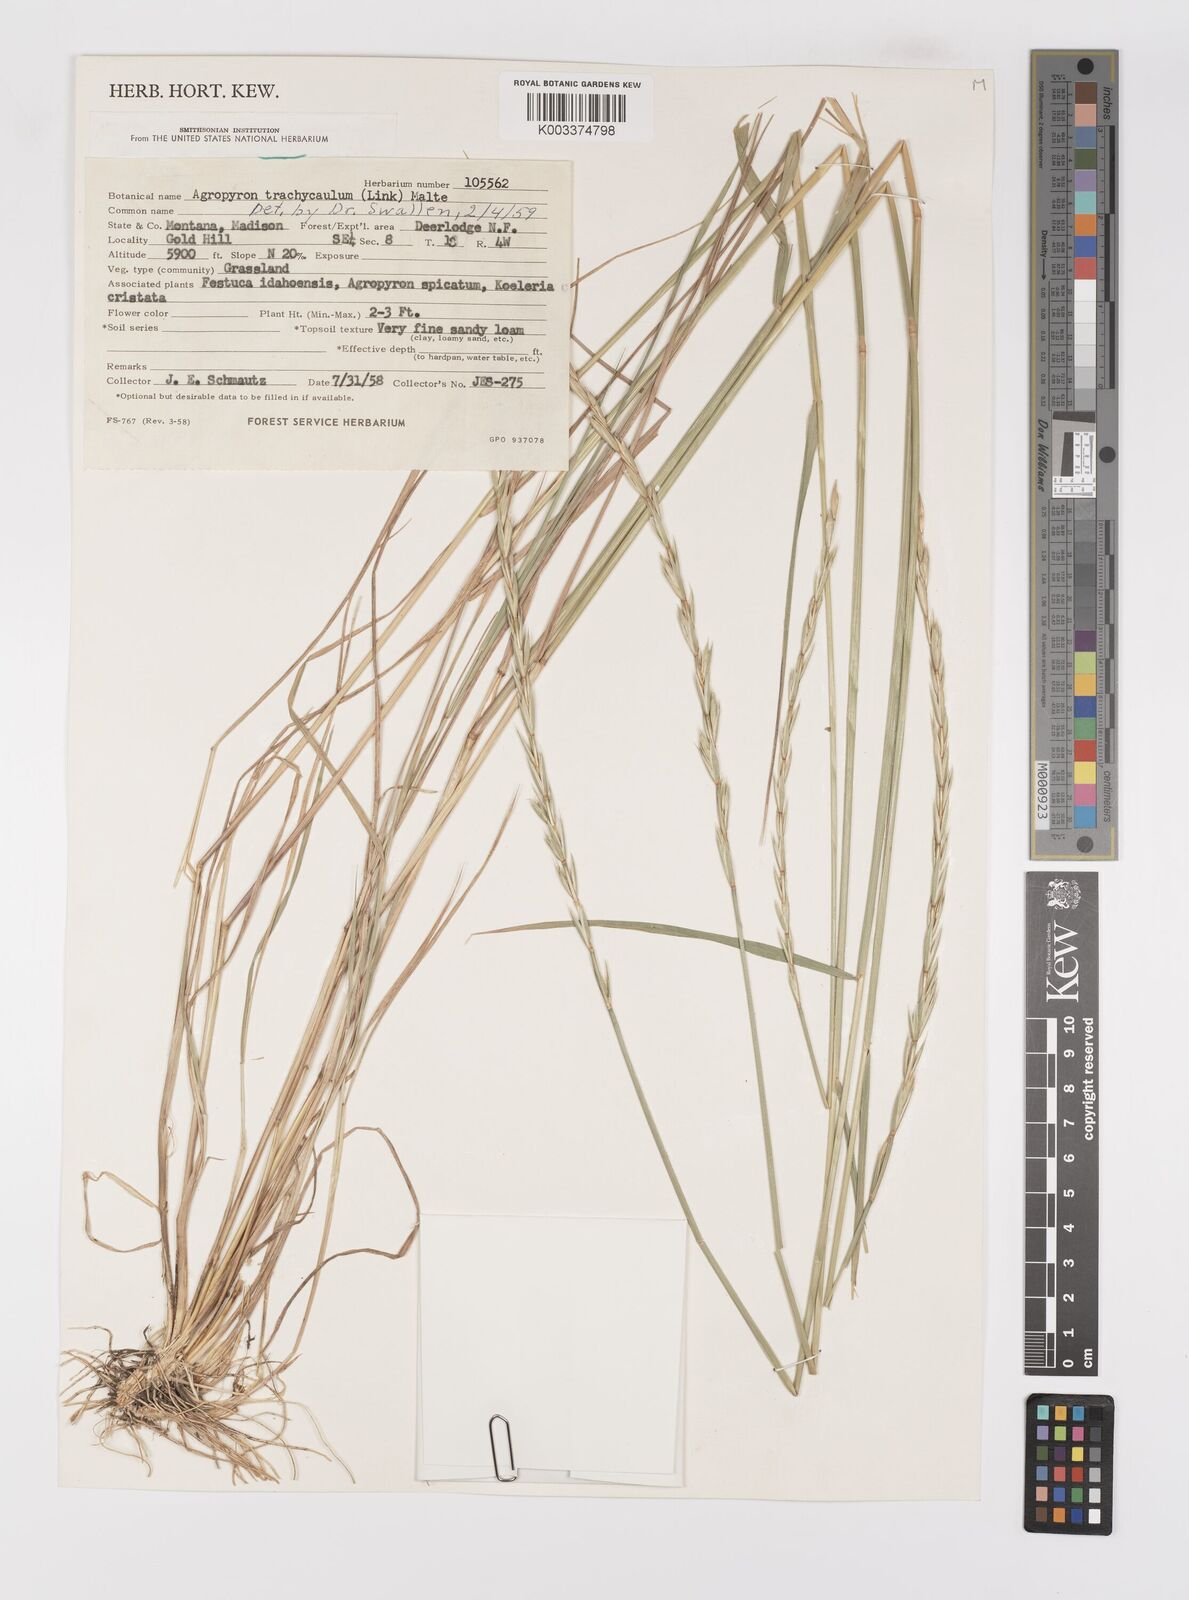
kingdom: Plantae
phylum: Tracheophyta
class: Liliopsida
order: Poales
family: Poaceae
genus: Elymus
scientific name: Elymus violaceus
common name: Arctic wheatgrass
